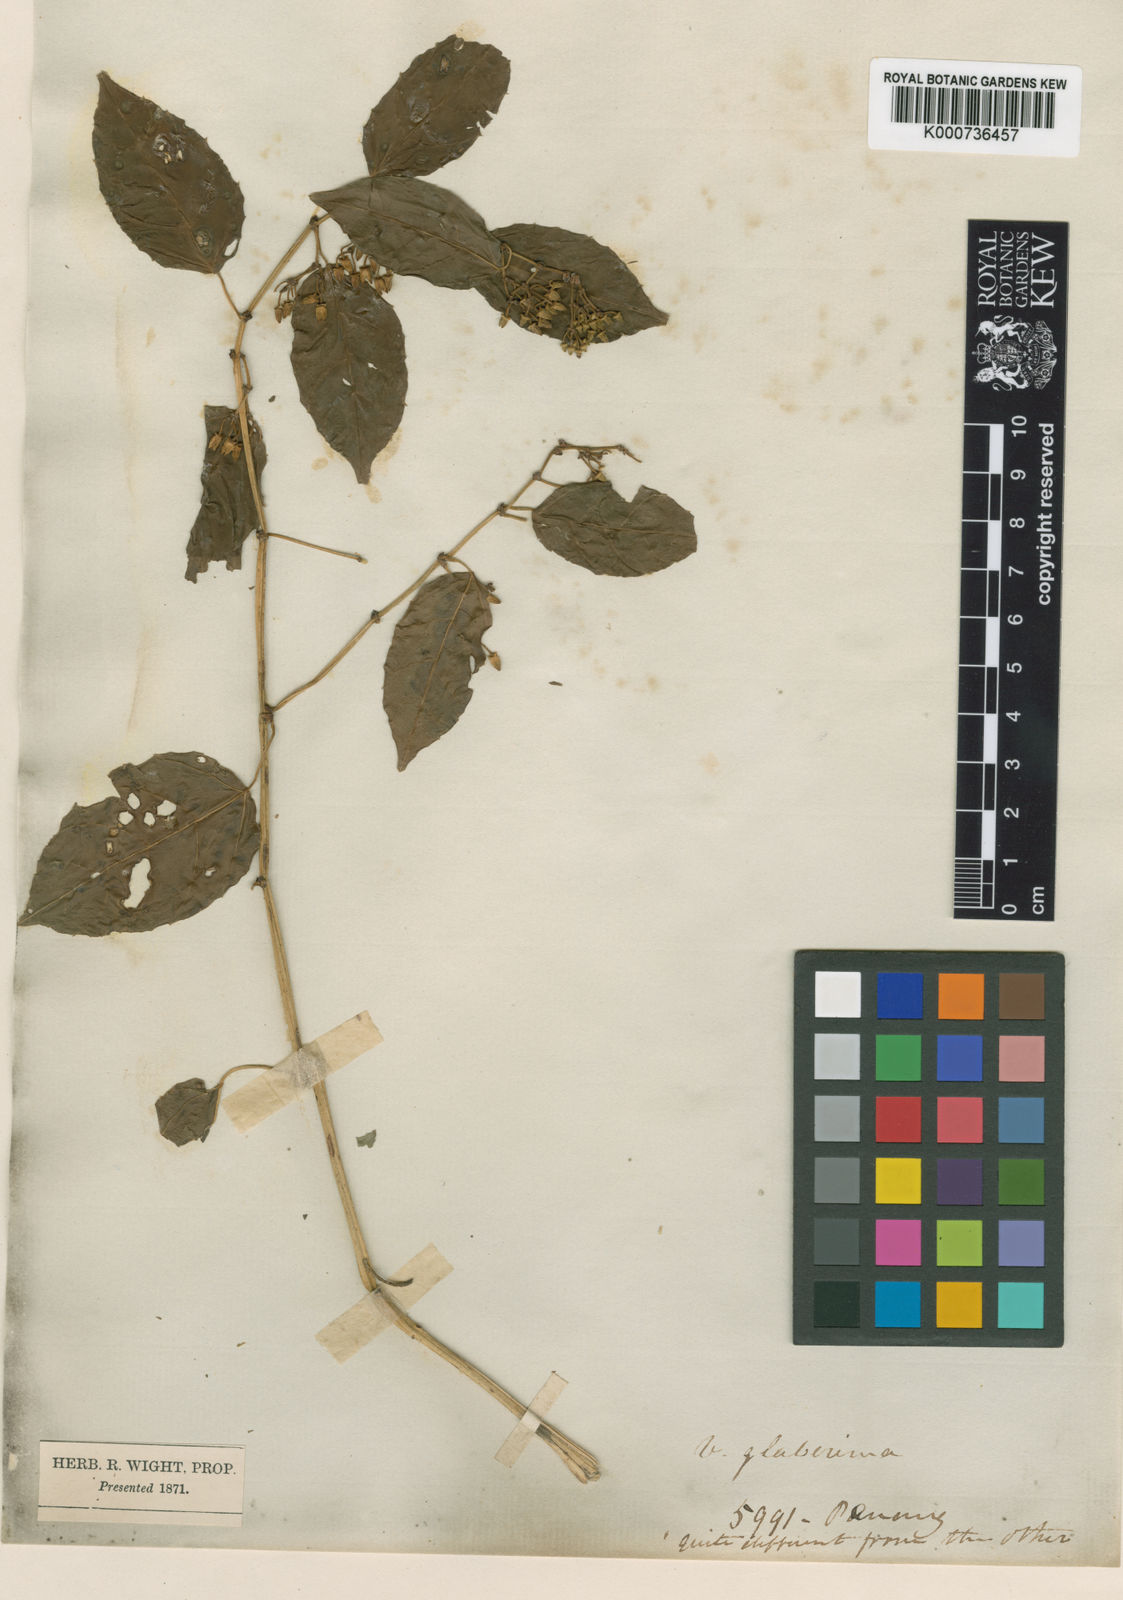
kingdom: Plantae
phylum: Tracheophyta
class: Magnoliopsida
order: Vitales
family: Vitaceae
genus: Cissus
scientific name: Cissus nodosa
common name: Grape ivy
